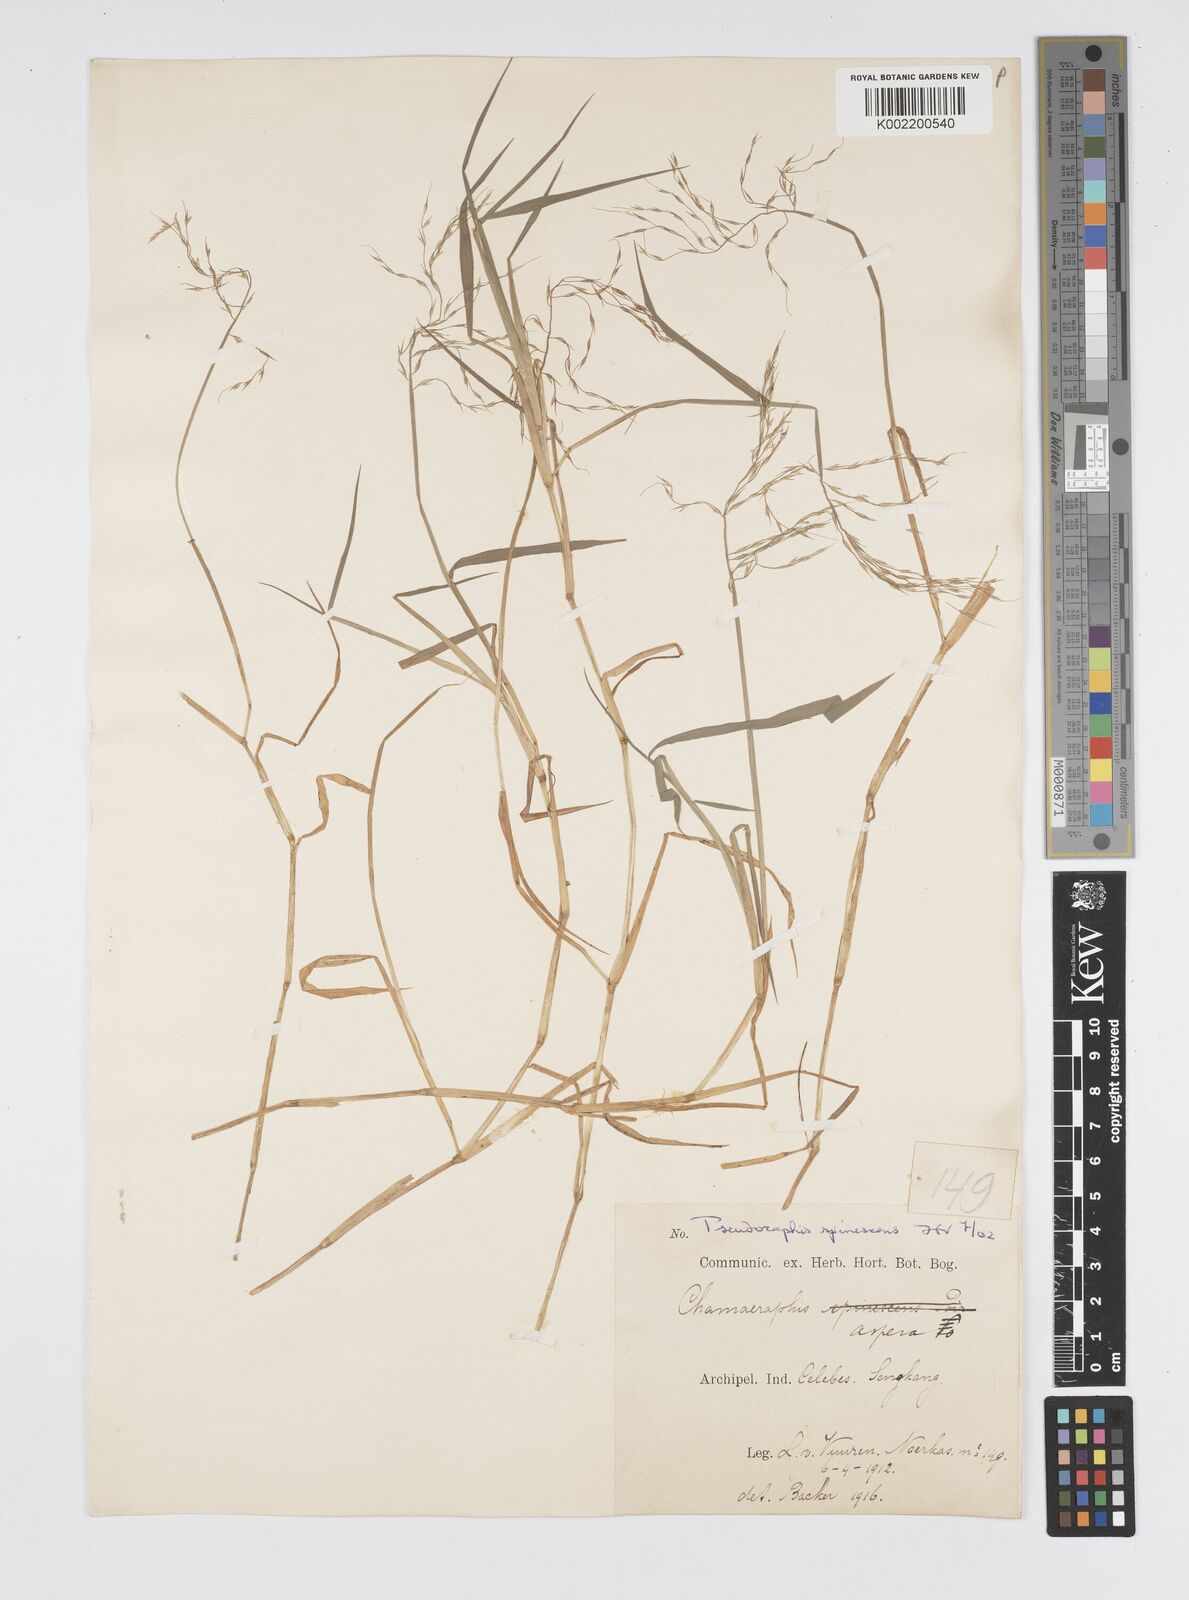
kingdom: Plantae
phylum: Tracheophyta
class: Liliopsida
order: Poales
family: Poaceae
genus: Pseudoraphis
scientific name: Pseudoraphis spinescens
